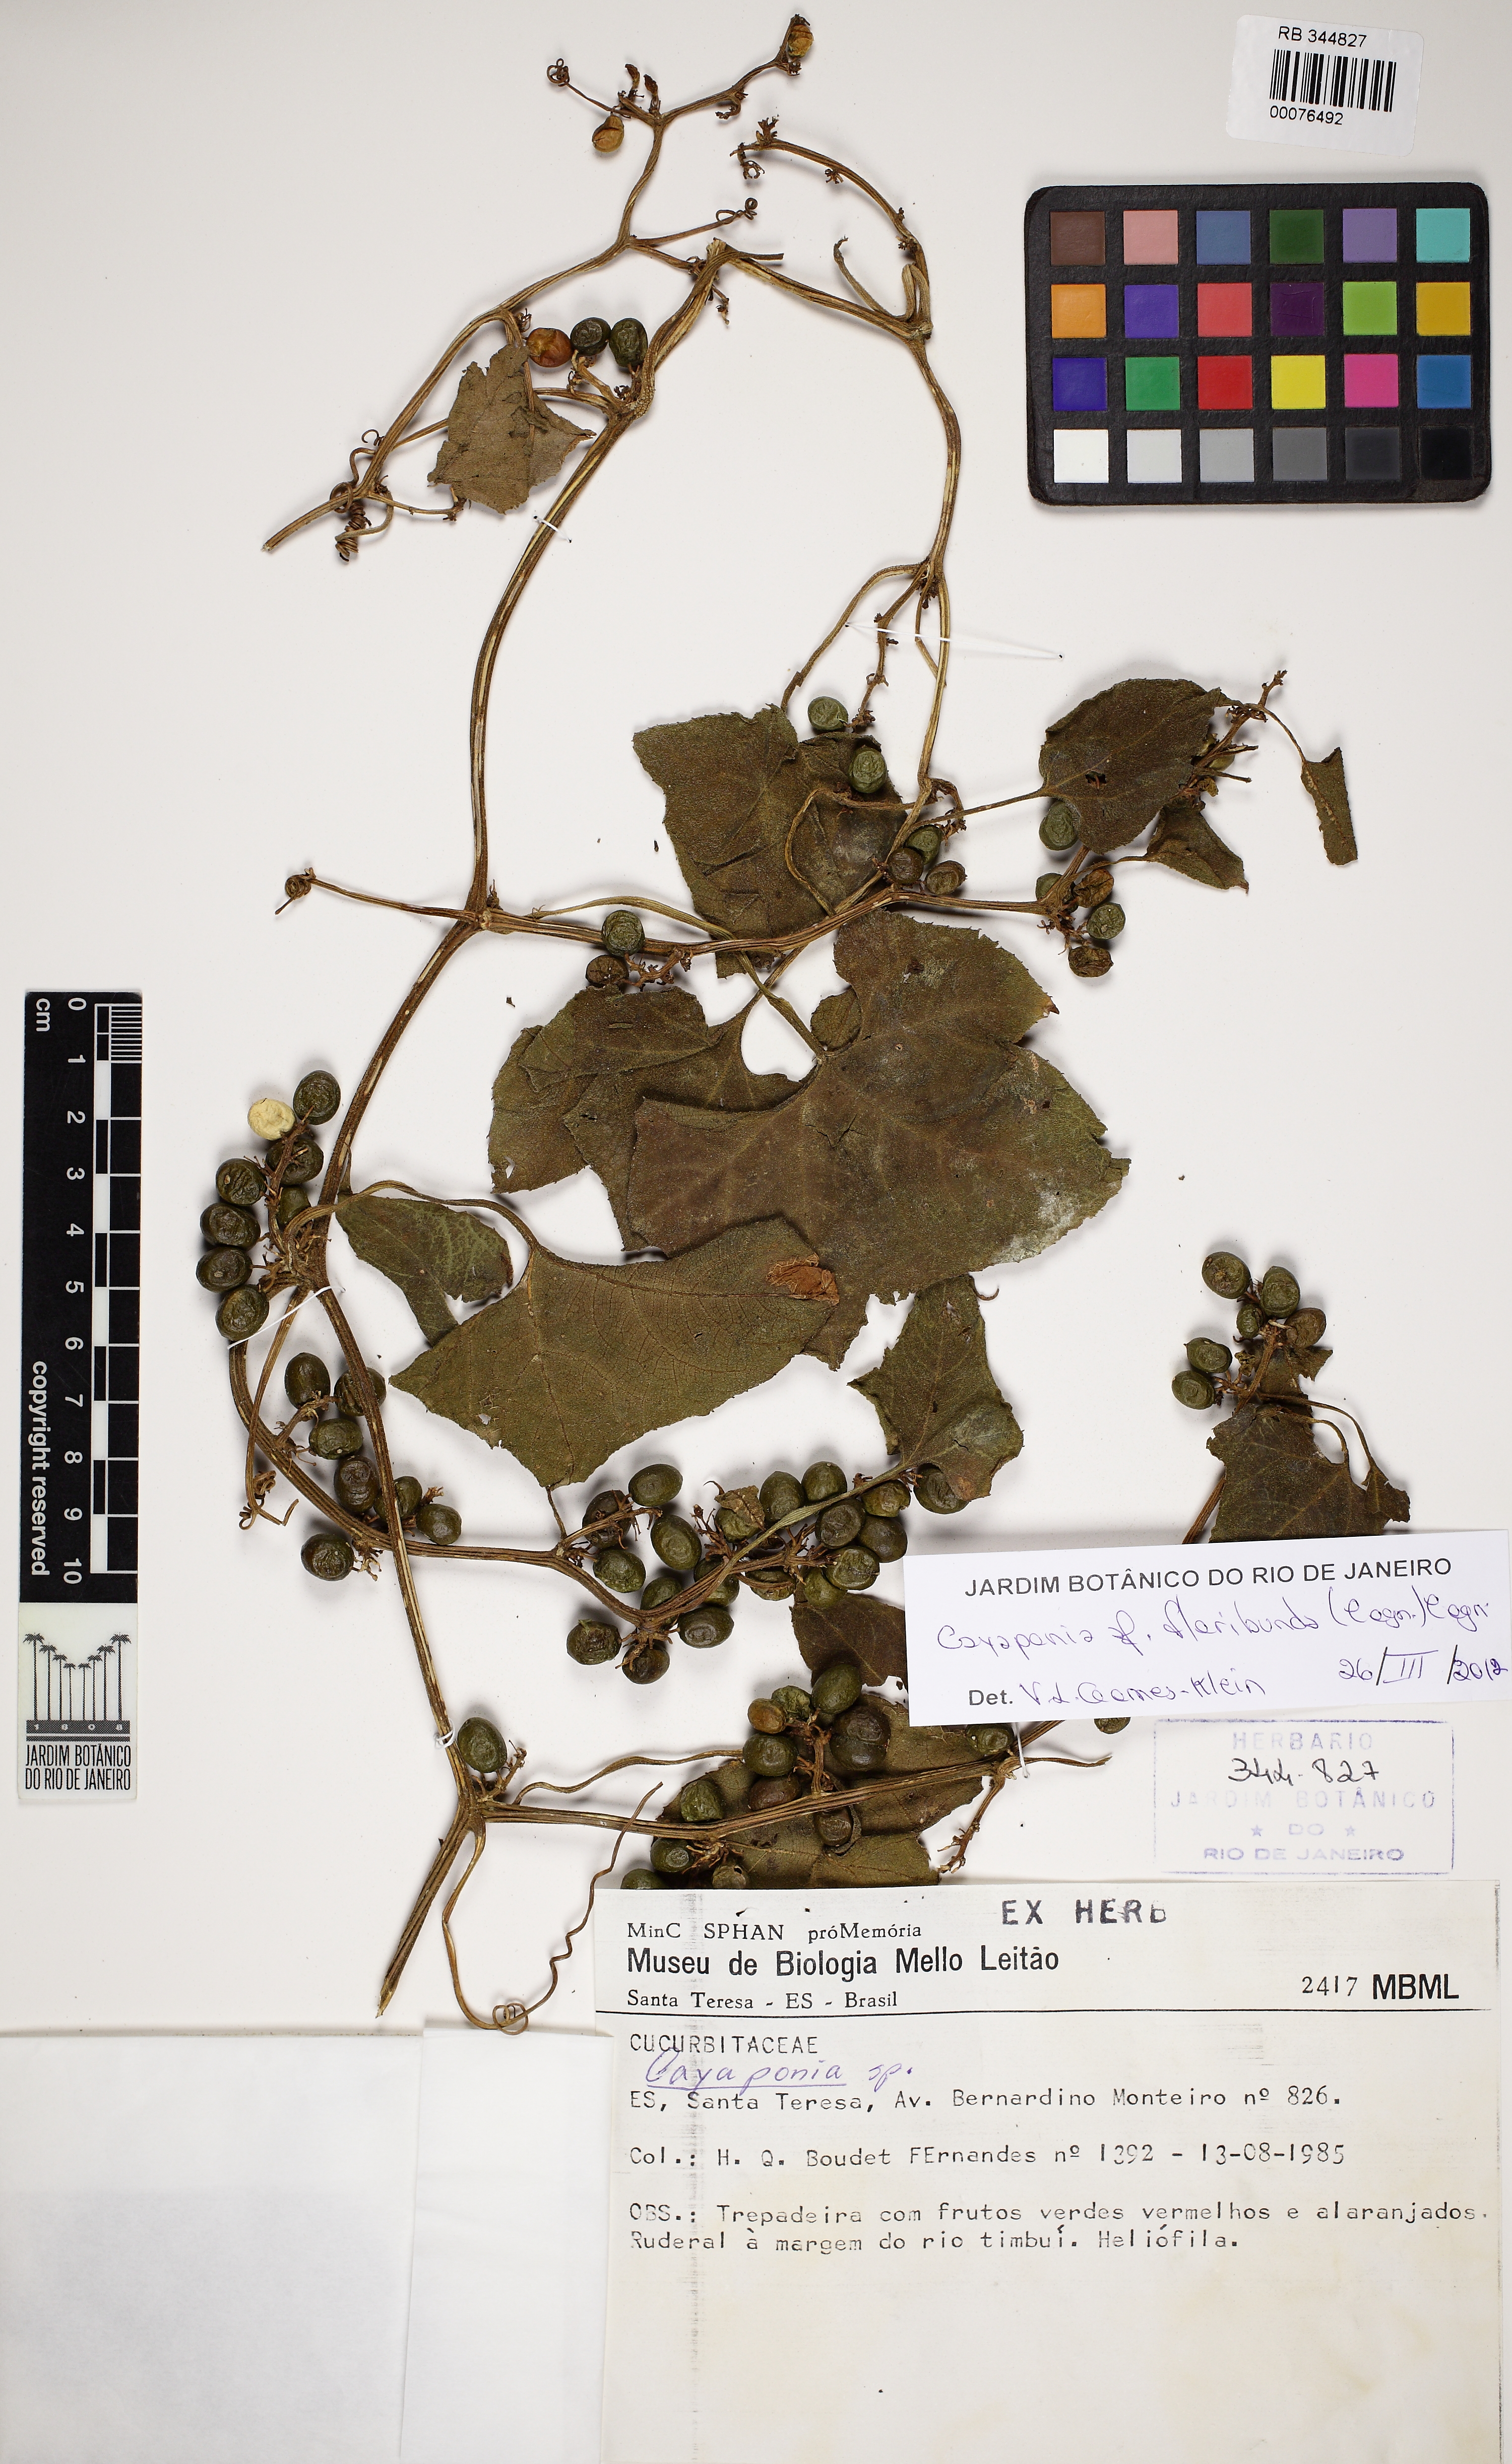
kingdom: Plantae
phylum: Tracheophyta
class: Magnoliopsida
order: Cucurbitales
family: Cucurbitaceae
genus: Cayaponia
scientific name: Cayaponia floribunda
